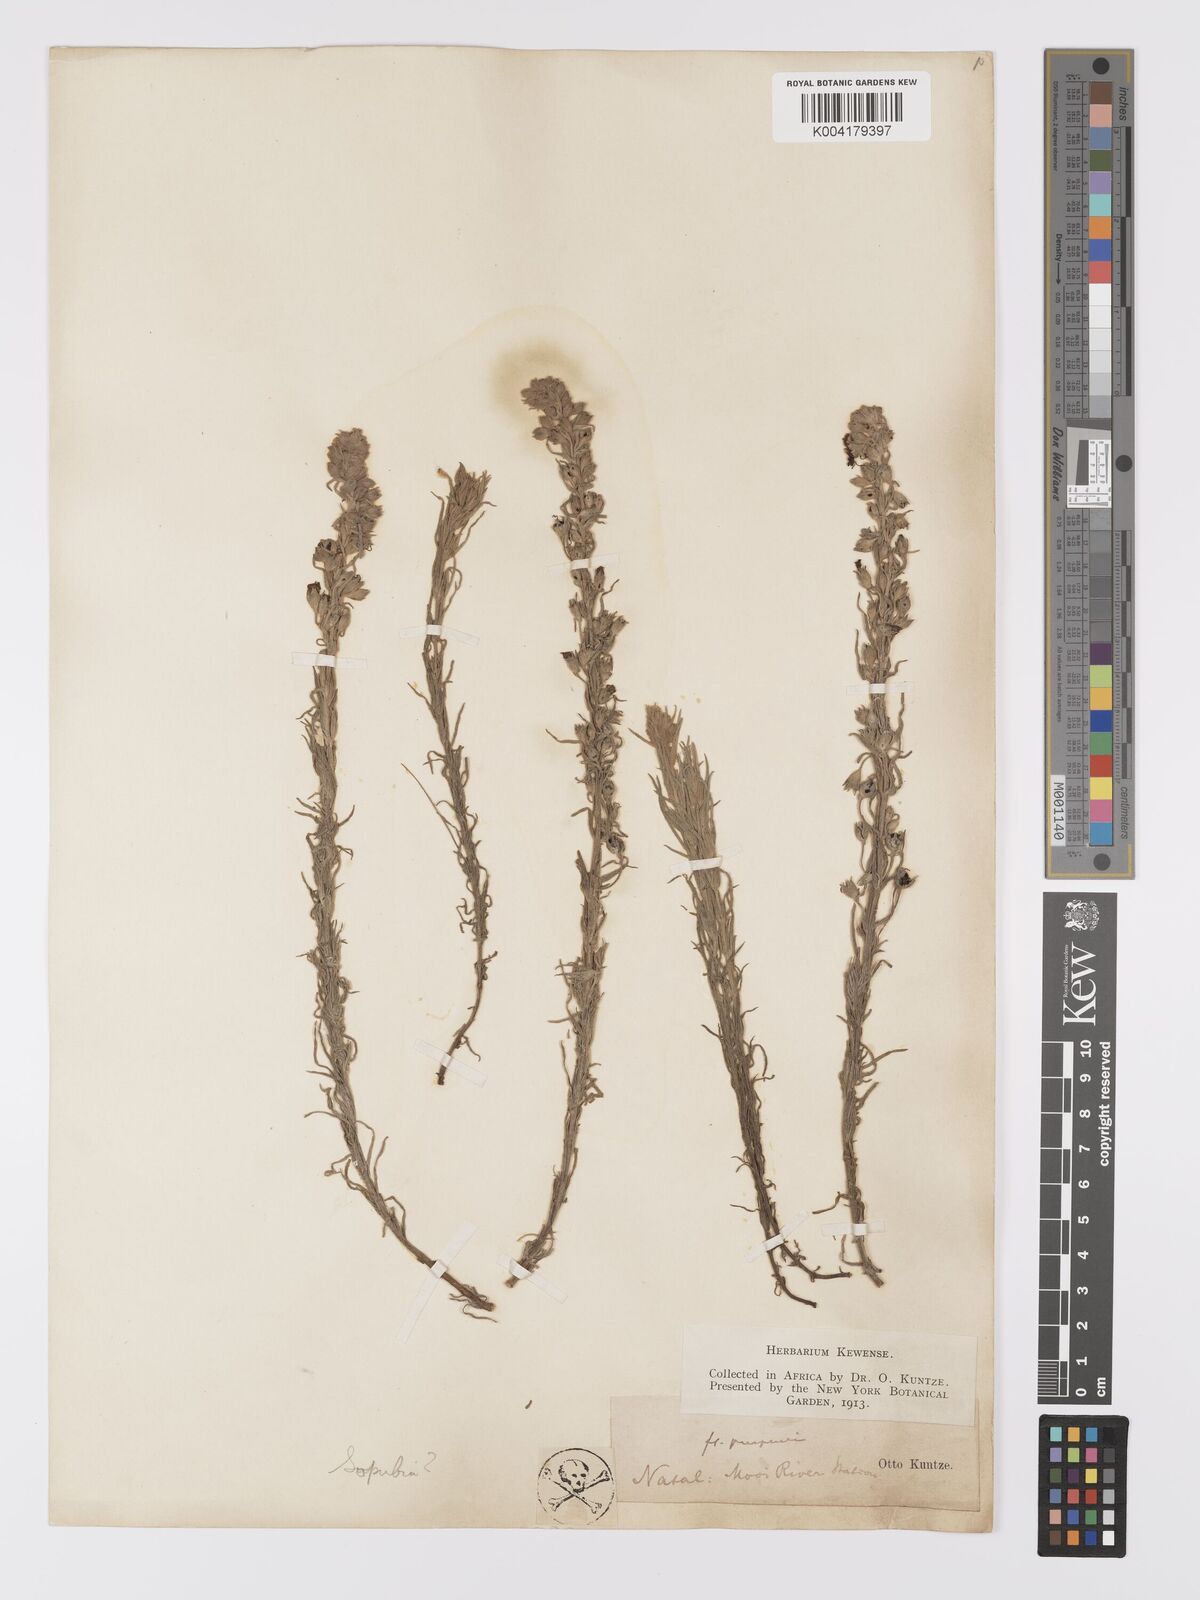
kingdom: Plantae
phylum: Tracheophyta
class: Magnoliopsida
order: Lamiales
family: Orobanchaceae
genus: Sopubia
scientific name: Sopubia cana
